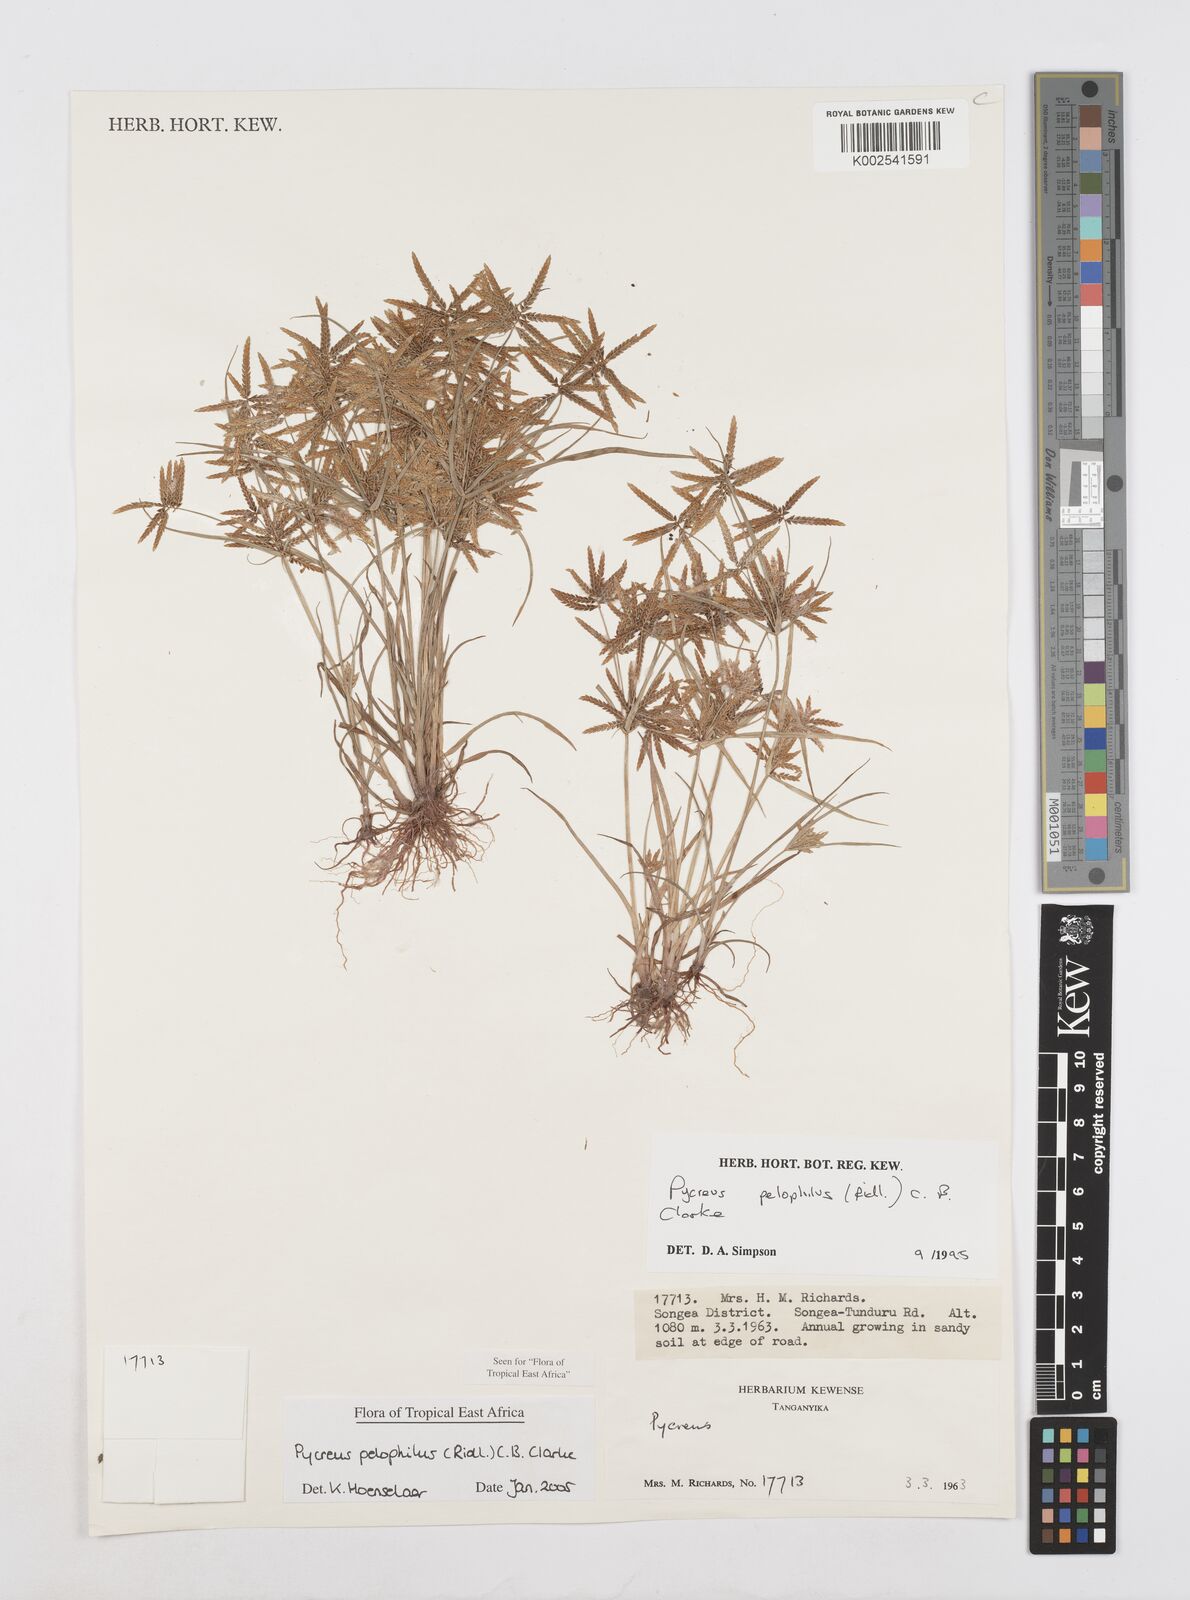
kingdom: Plantae
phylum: Tracheophyta
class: Liliopsida
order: Poales
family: Cyperaceae
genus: Cyperus
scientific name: Cyperus pelophilus
